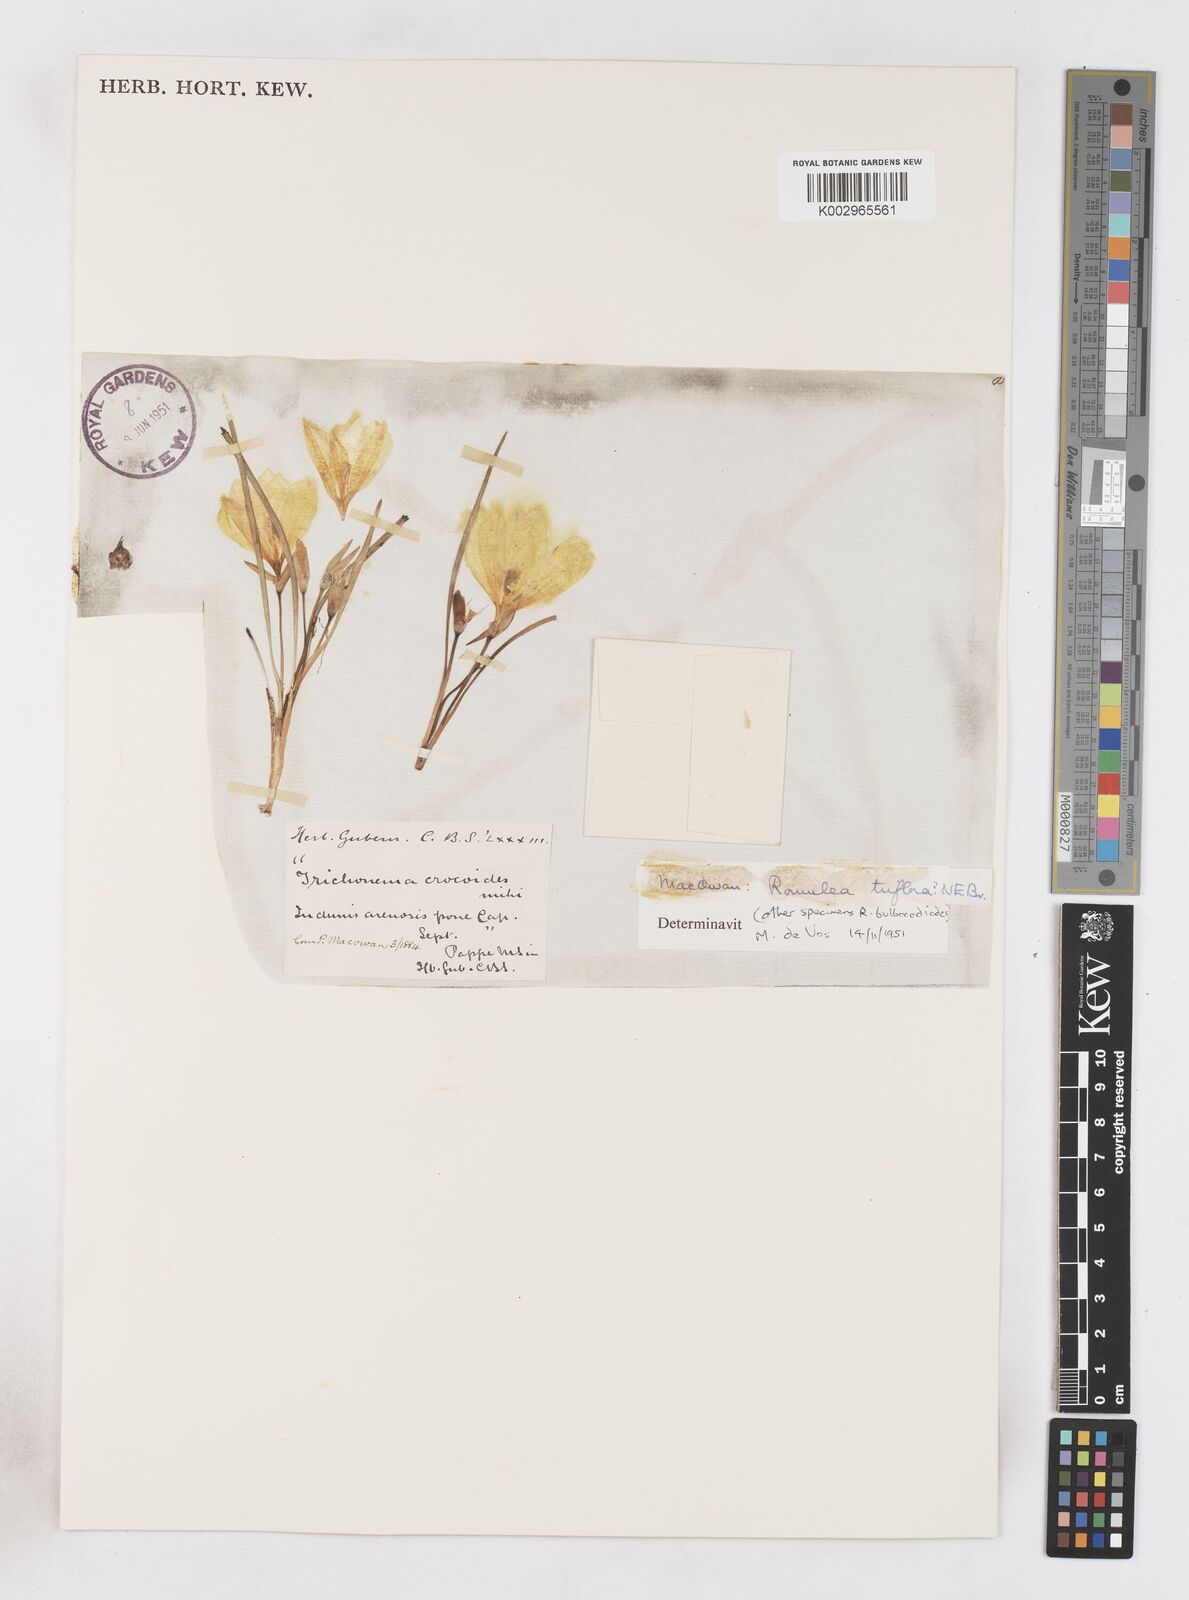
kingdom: Plantae
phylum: Tracheophyta
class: Liliopsida
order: Asparagales
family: Iridaceae
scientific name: Iridaceae
